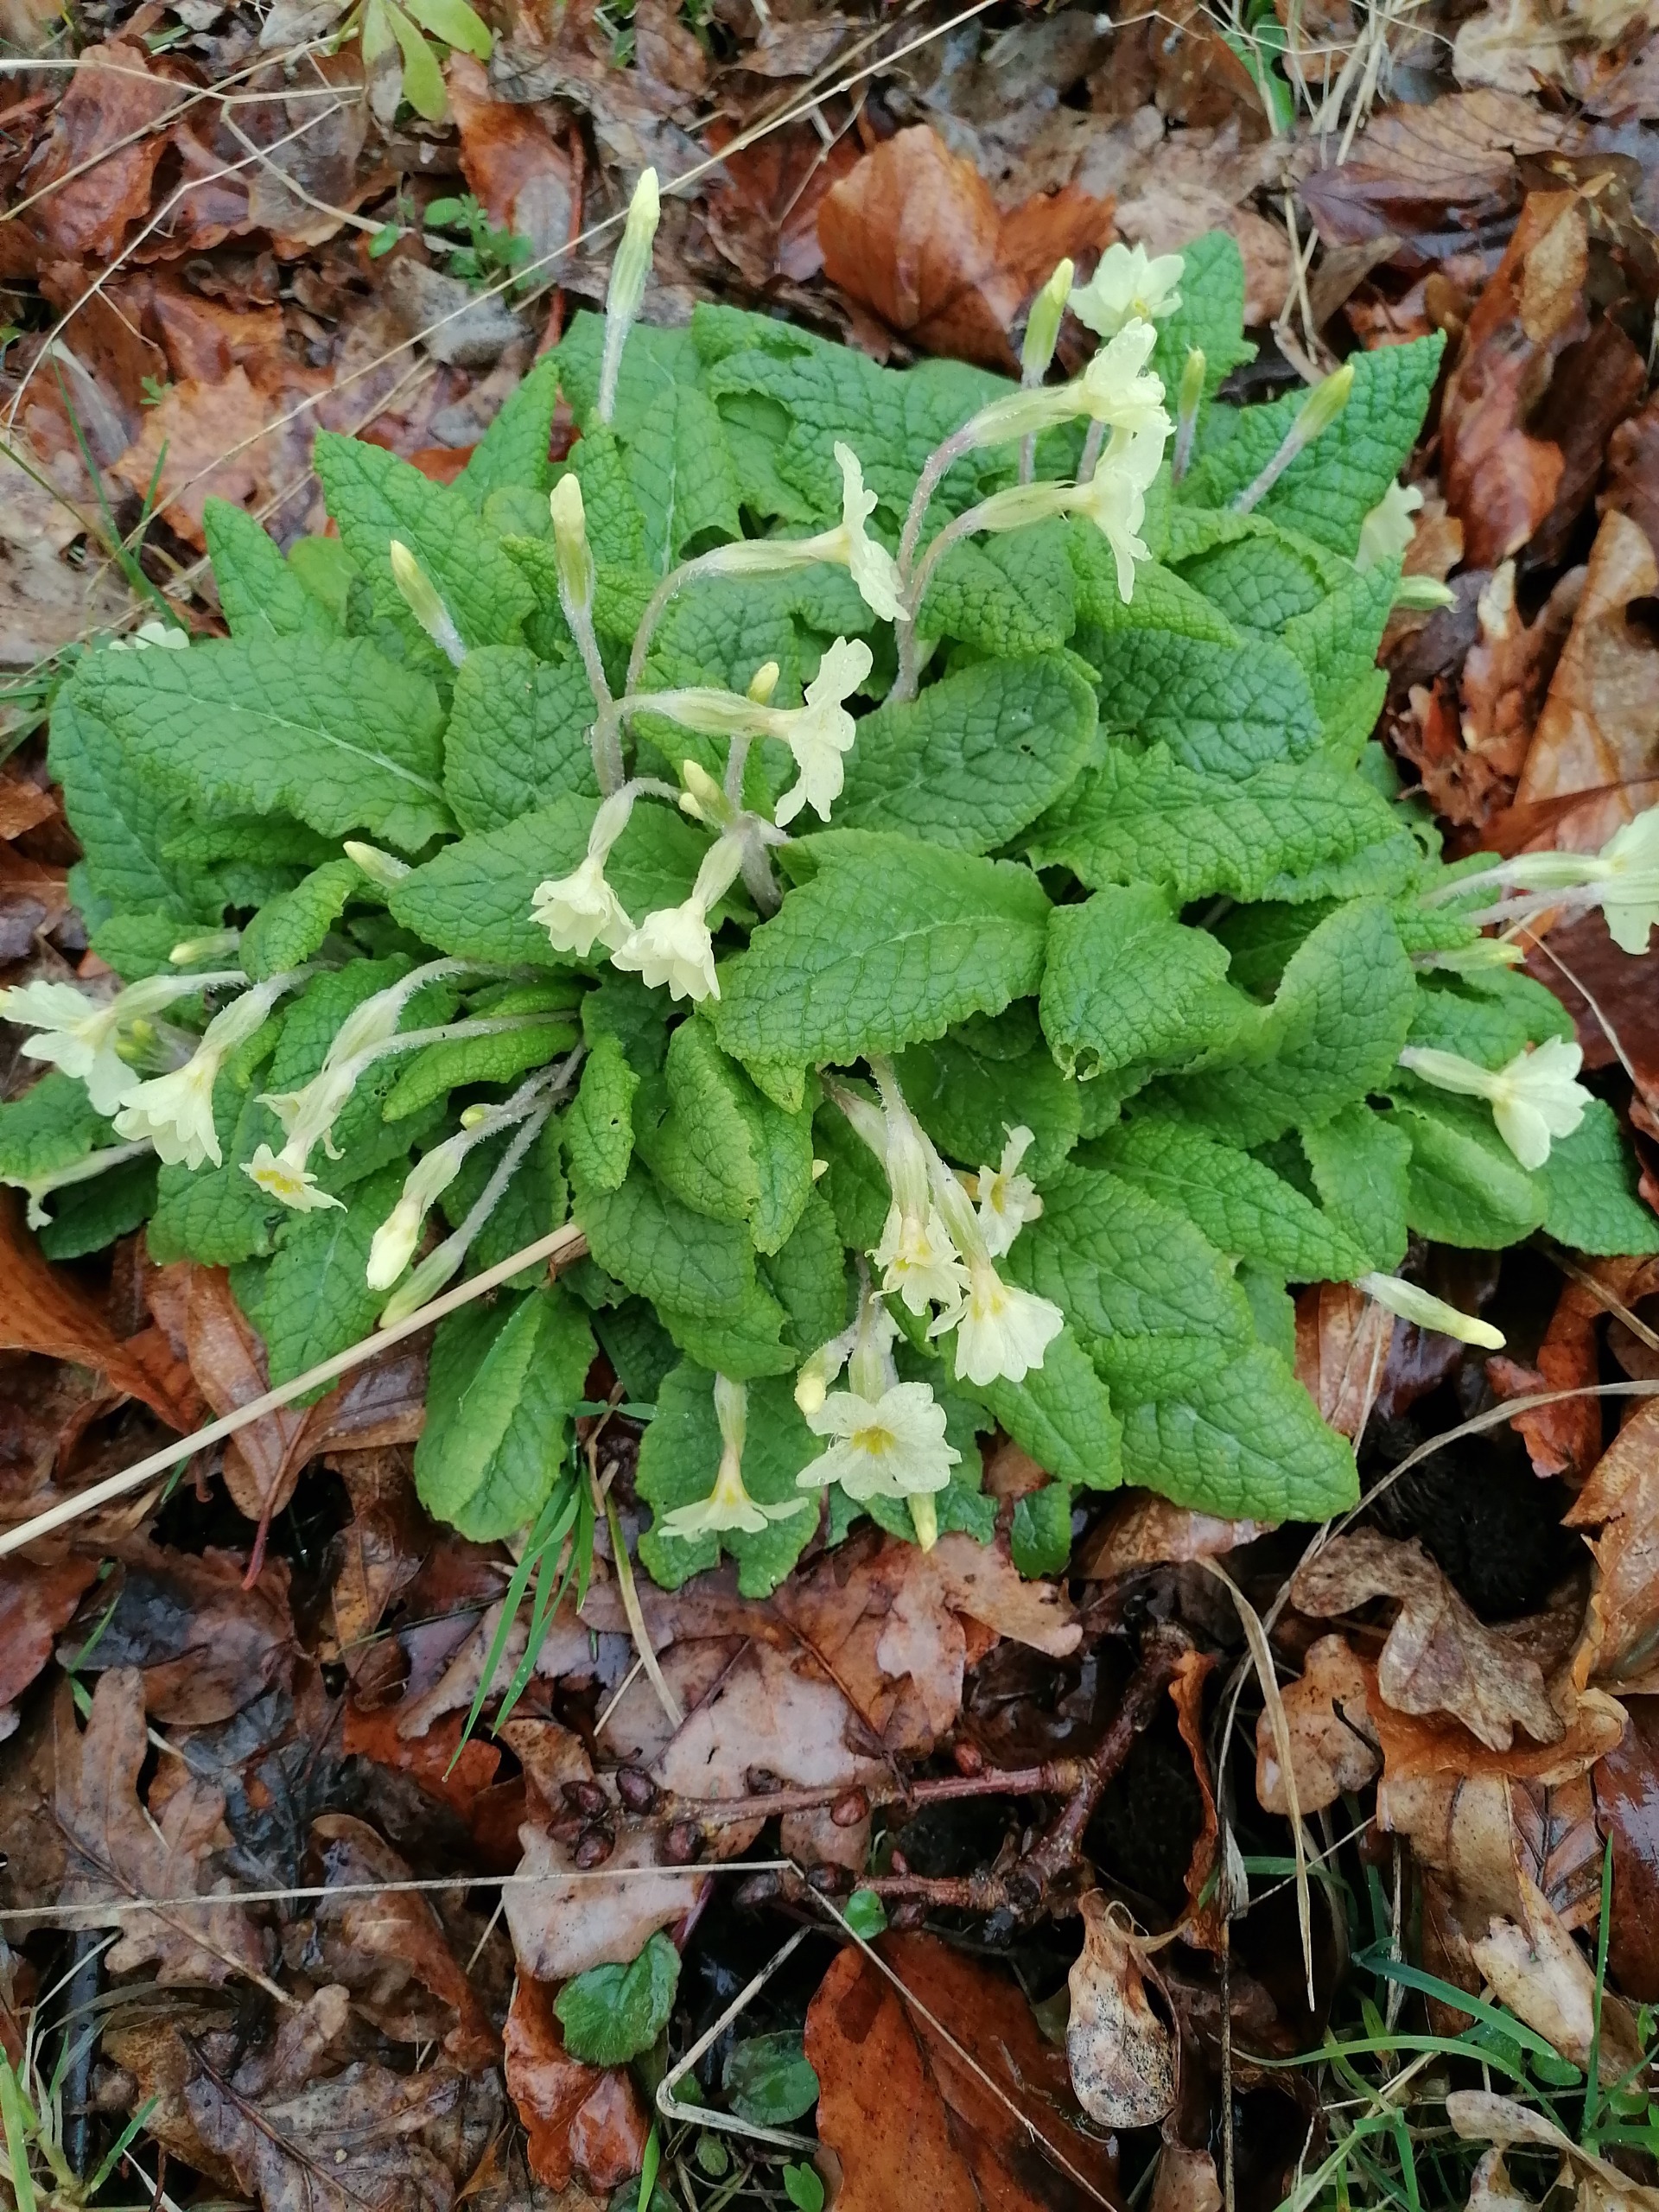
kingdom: Plantae
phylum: Tracheophyta
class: Magnoliopsida
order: Ericales
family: Primulaceae
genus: Primula
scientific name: Primula vulgaris
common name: Storblomstret kodriver
